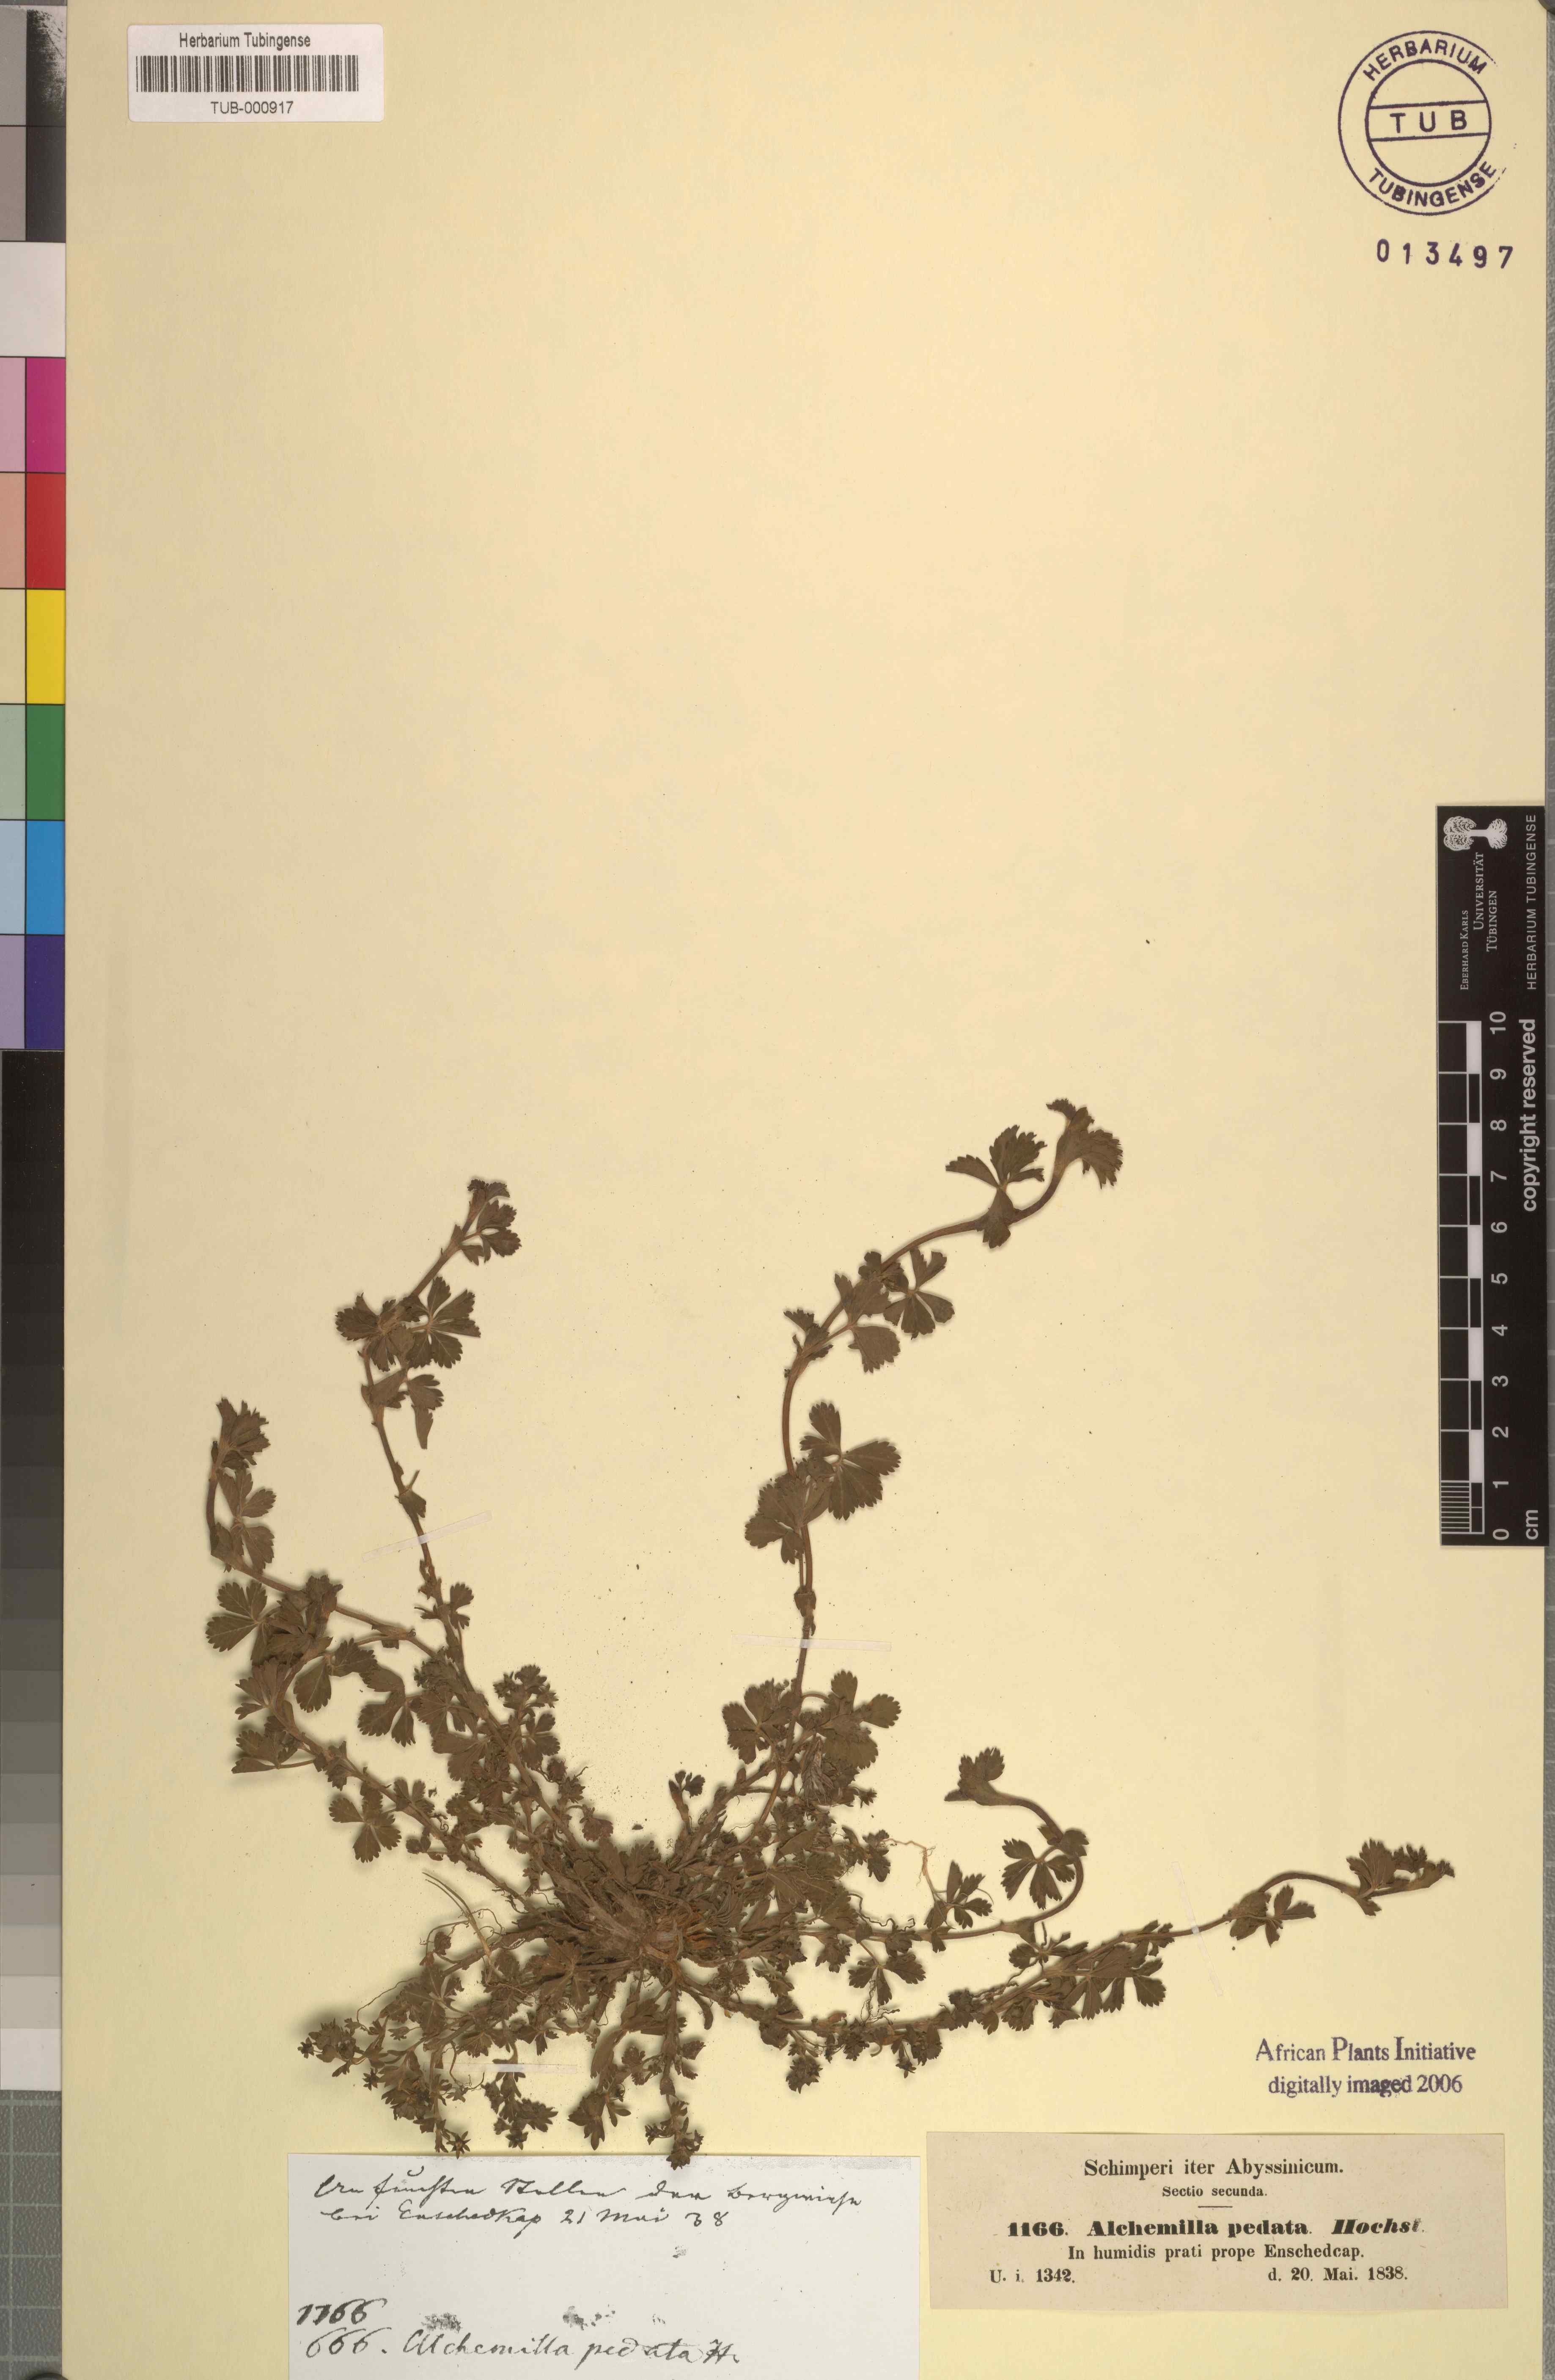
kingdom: Plantae
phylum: Tracheophyta
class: Magnoliopsida
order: Rosales
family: Rosaceae
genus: Alchemilla
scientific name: Alchemilla pedata
